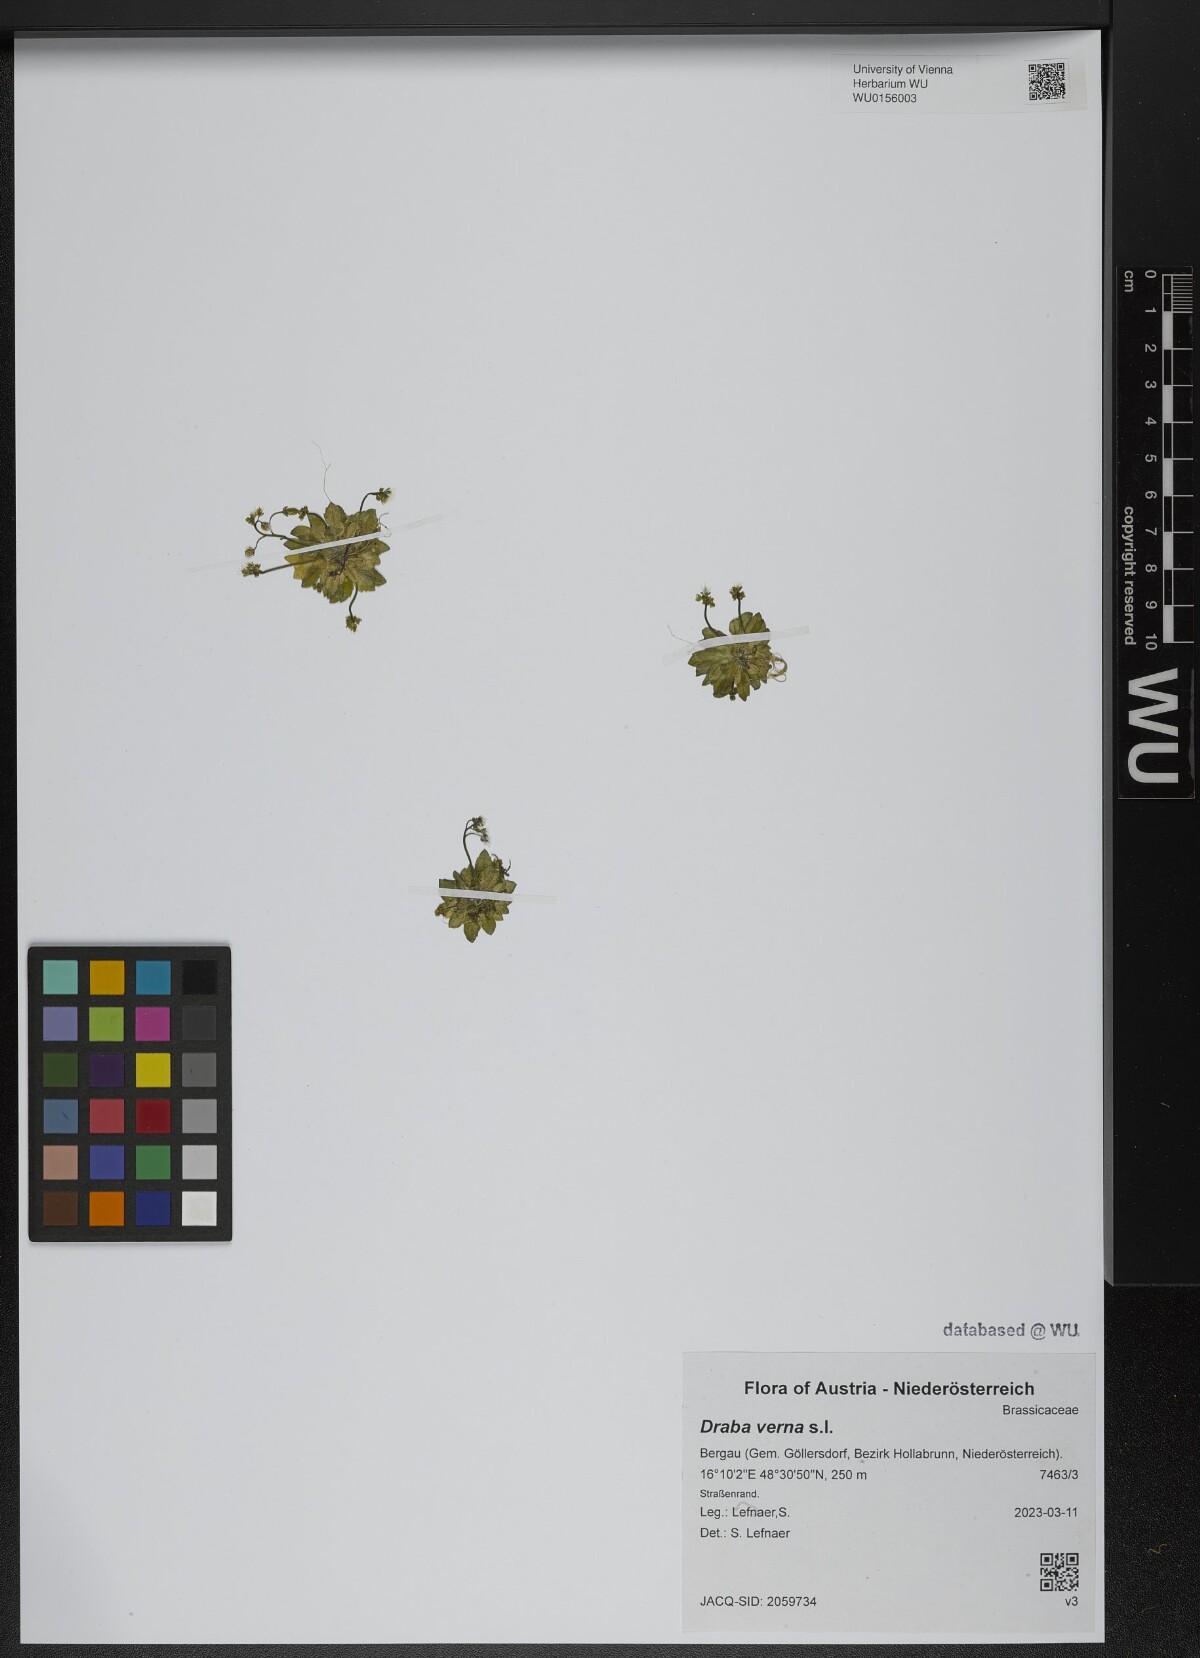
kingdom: Plantae
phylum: Tracheophyta
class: Magnoliopsida
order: Brassicales
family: Brassicaceae
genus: Draba
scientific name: Draba verna
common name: Spring draba
